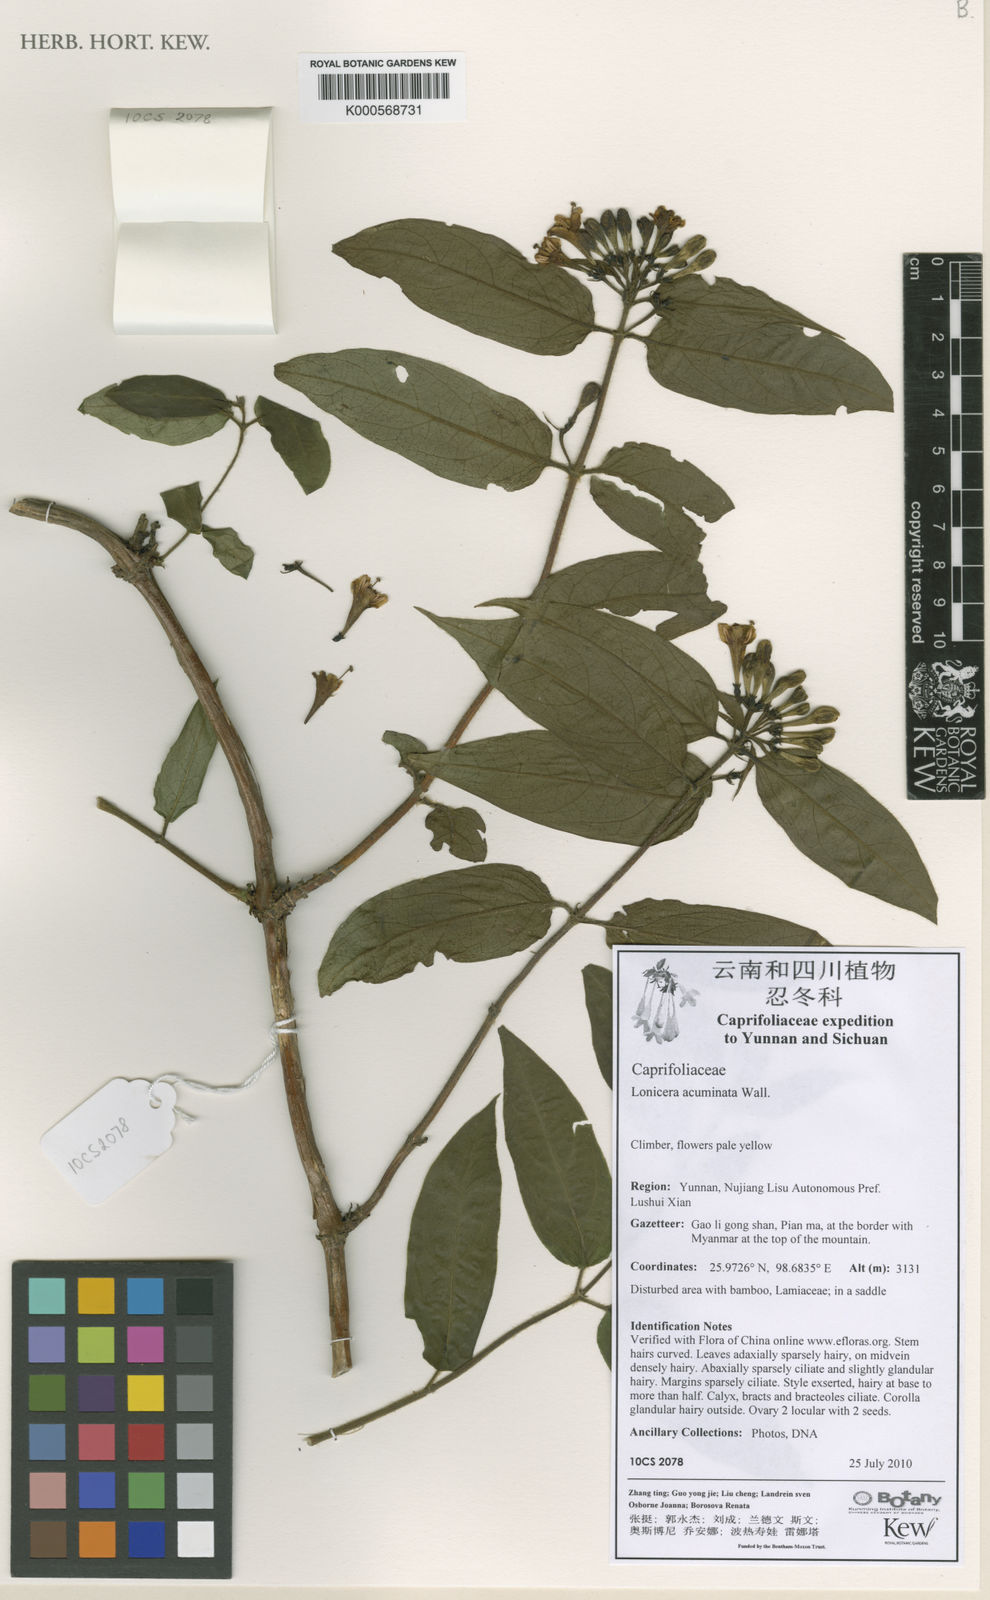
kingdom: Plantae
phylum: Tracheophyta
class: Magnoliopsida
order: Dipsacales
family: Caprifoliaceae
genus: Lonicera
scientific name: Lonicera acuminata
